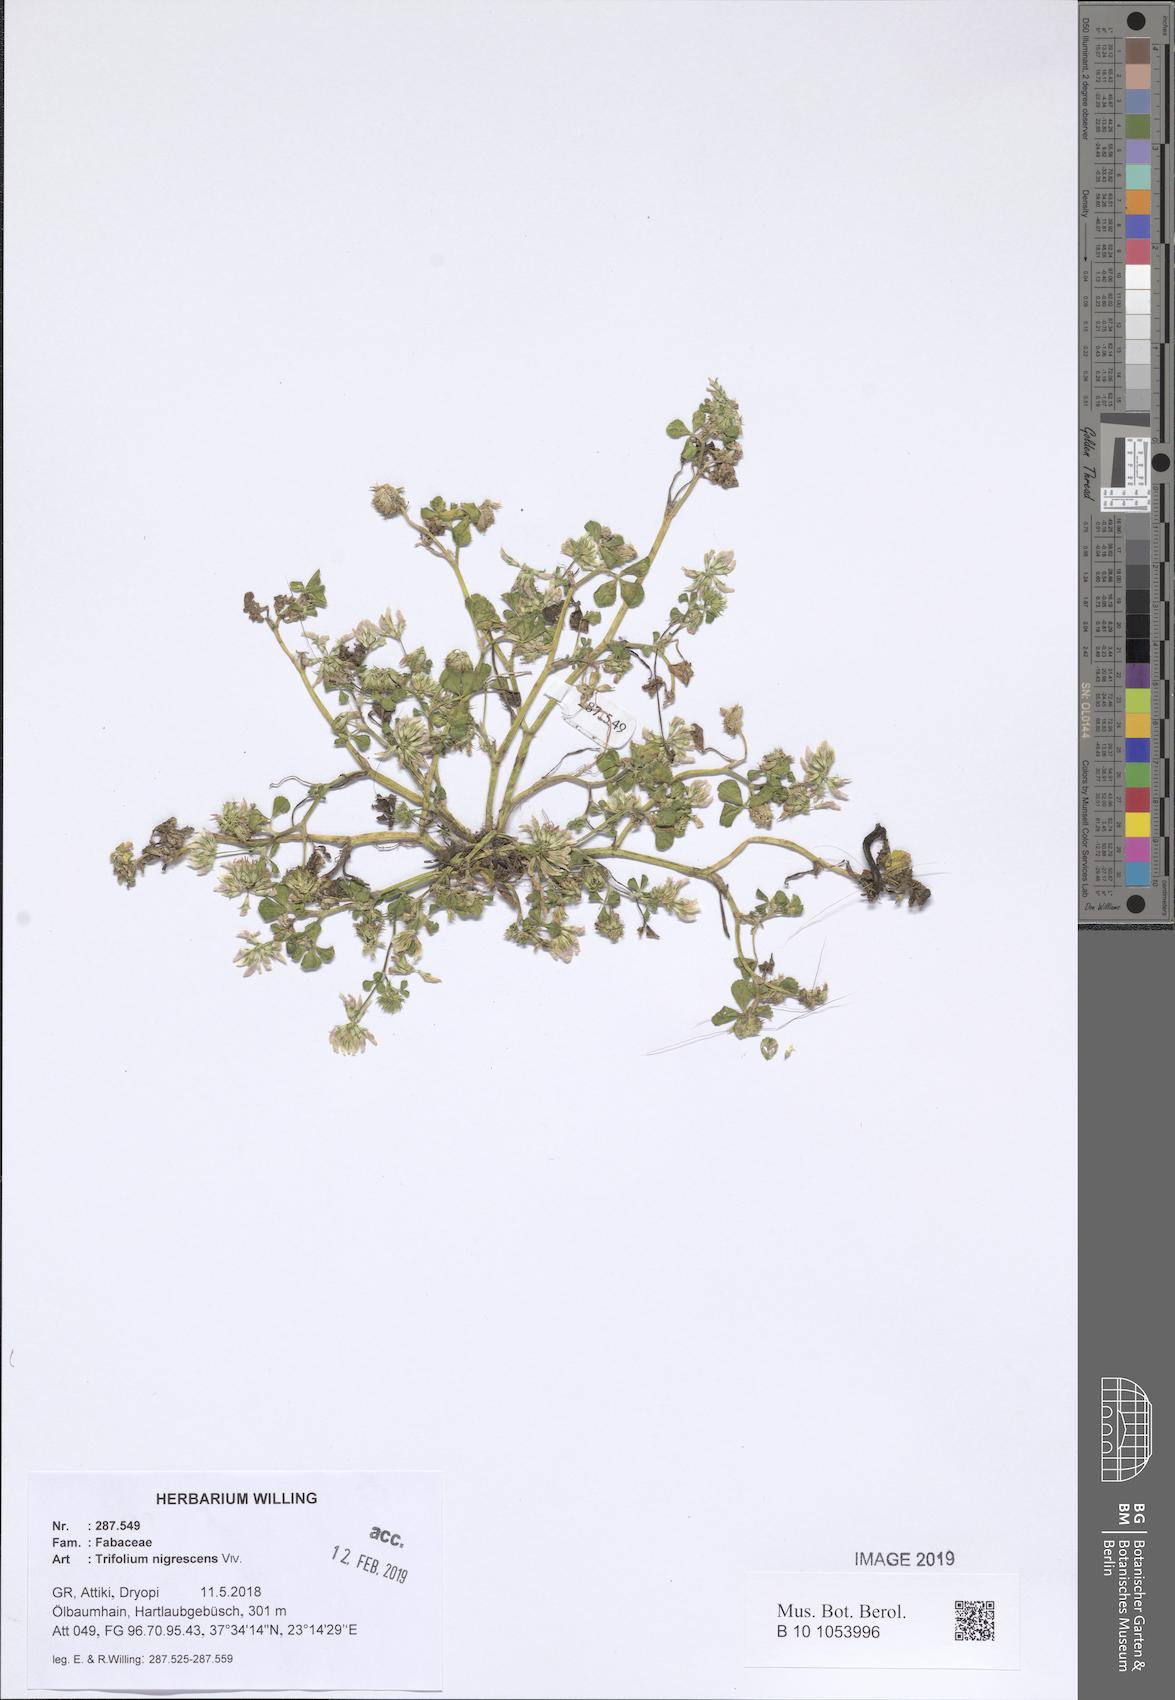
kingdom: Plantae
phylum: Tracheophyta
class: Magnoliopsida
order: Fabales
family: Fabaceae
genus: Trifolium
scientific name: Trifolium nigrescens
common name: Small white clover
